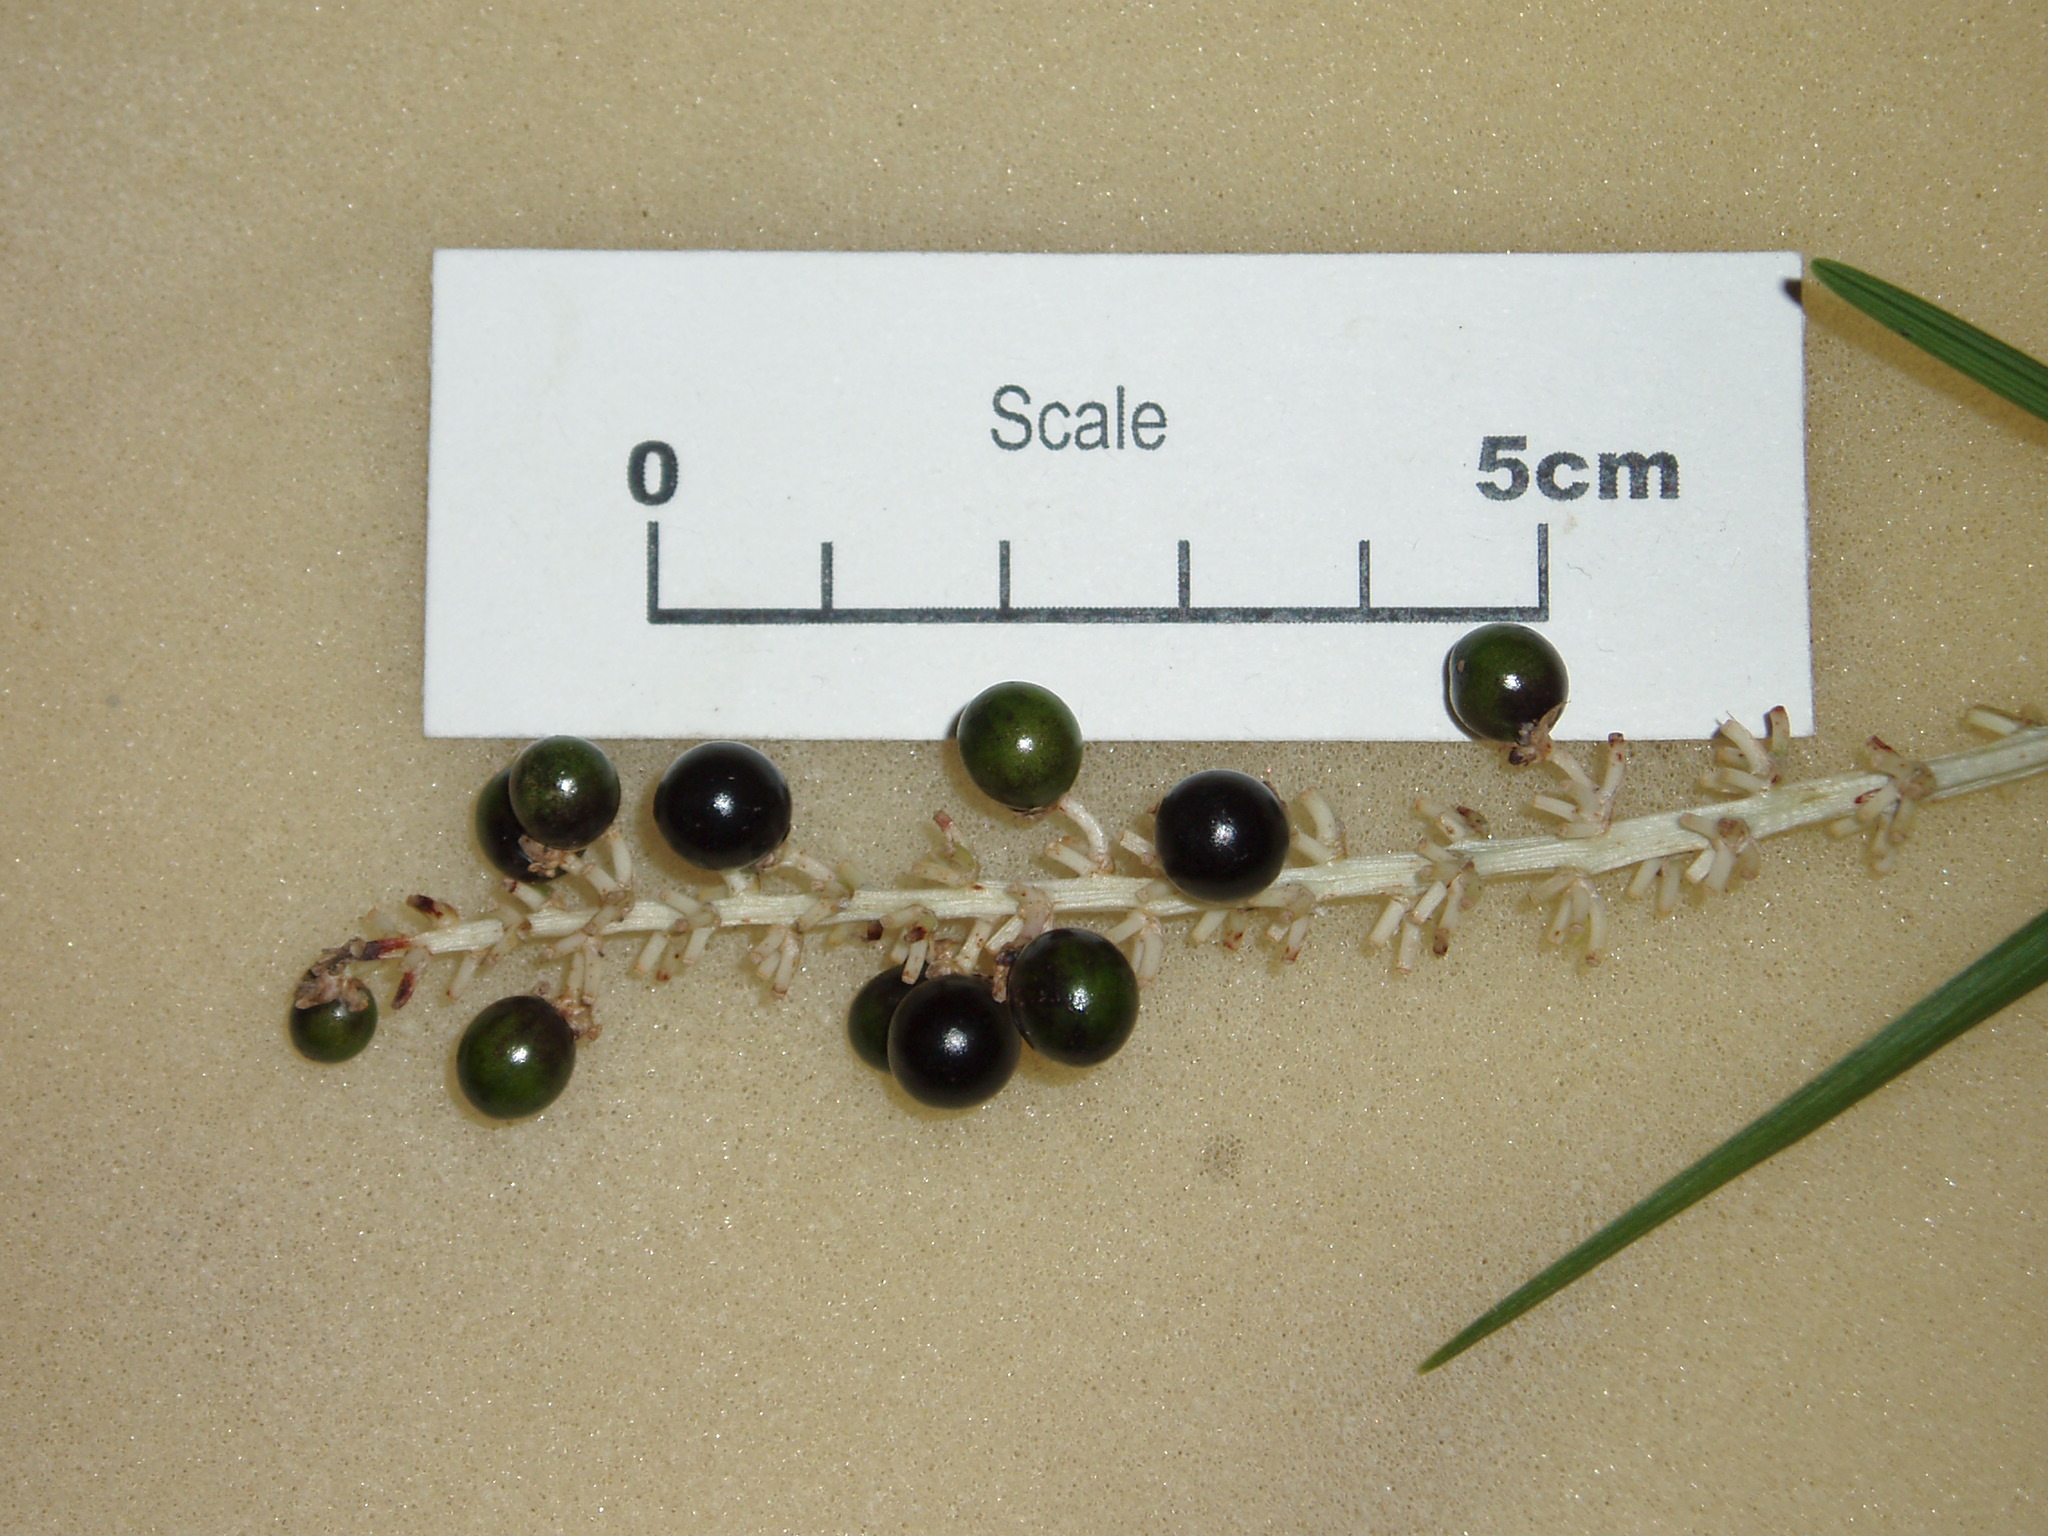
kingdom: Plantae
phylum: Tracheophyta
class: Liliopsida
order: Asparagales
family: Asparagaceae
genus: Liriope
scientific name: Liriope muscari
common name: Big blue lilyturf
